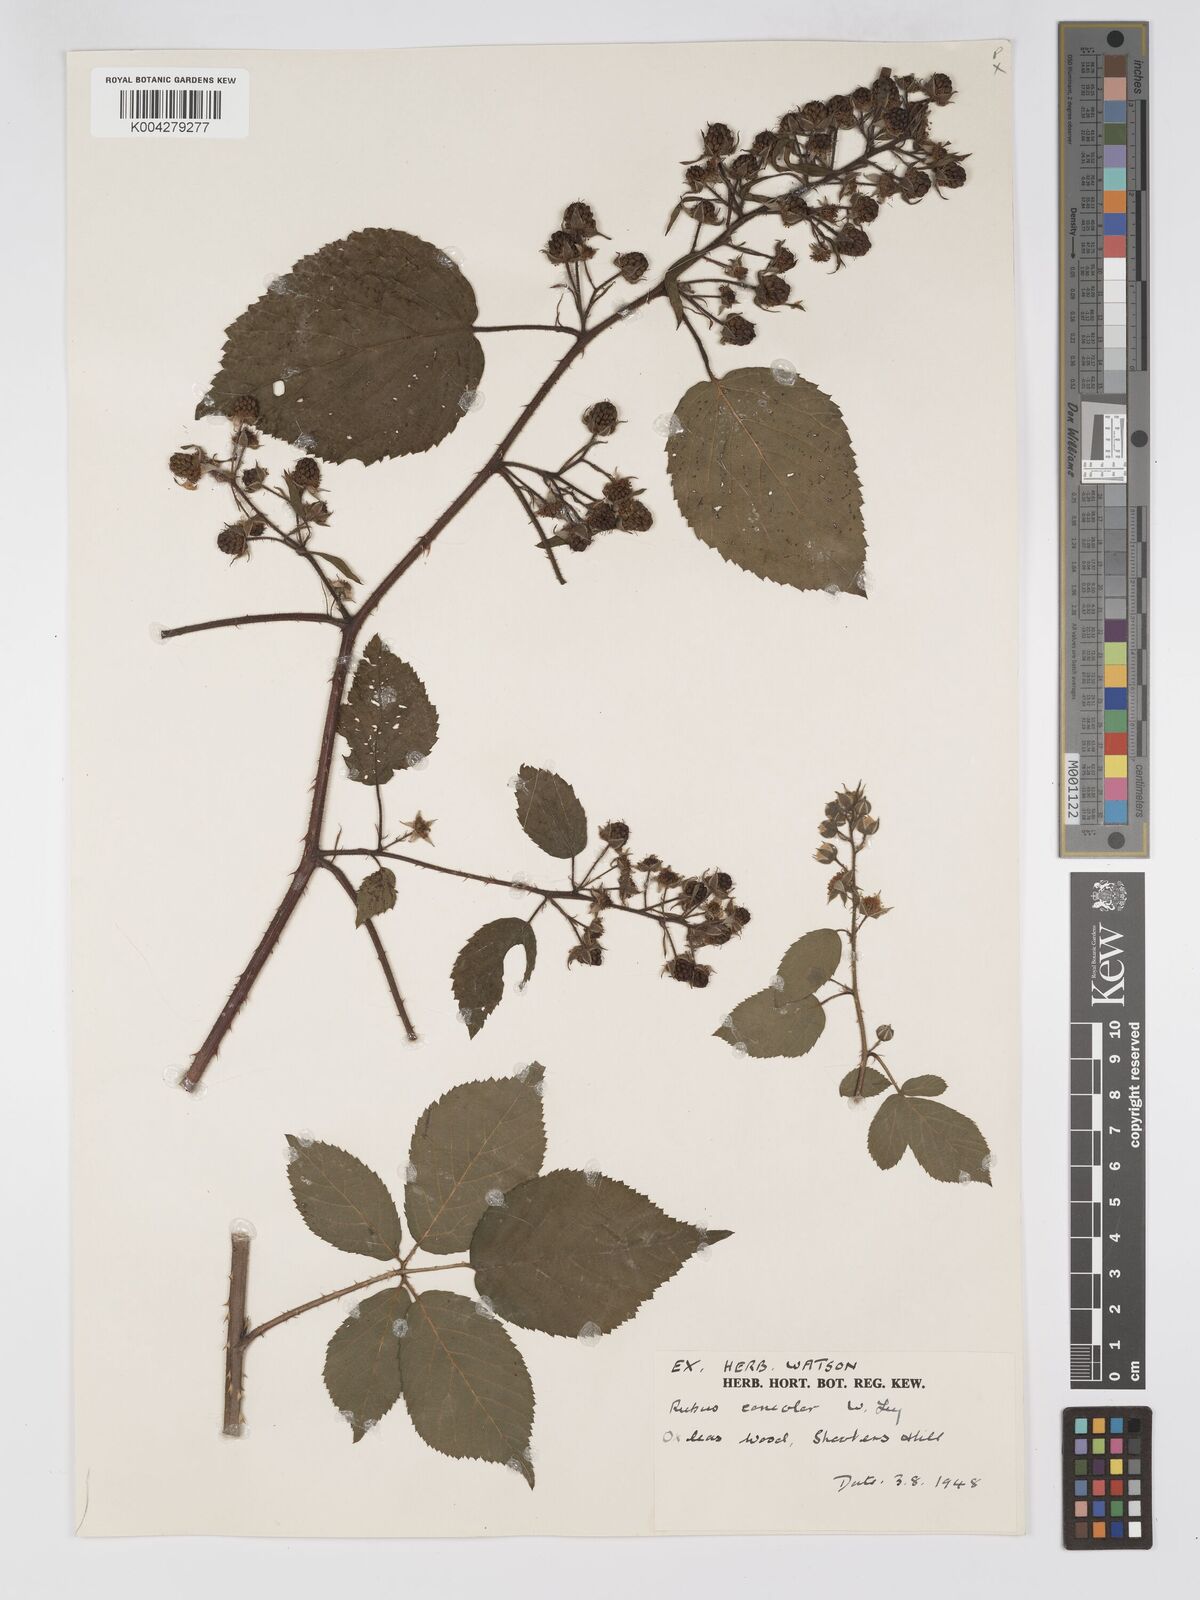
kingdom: Plantae
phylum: Tracheophyta
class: Magnoliopsida
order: Rosales
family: Rosaceae
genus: Rubus
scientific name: Rubus concolor
